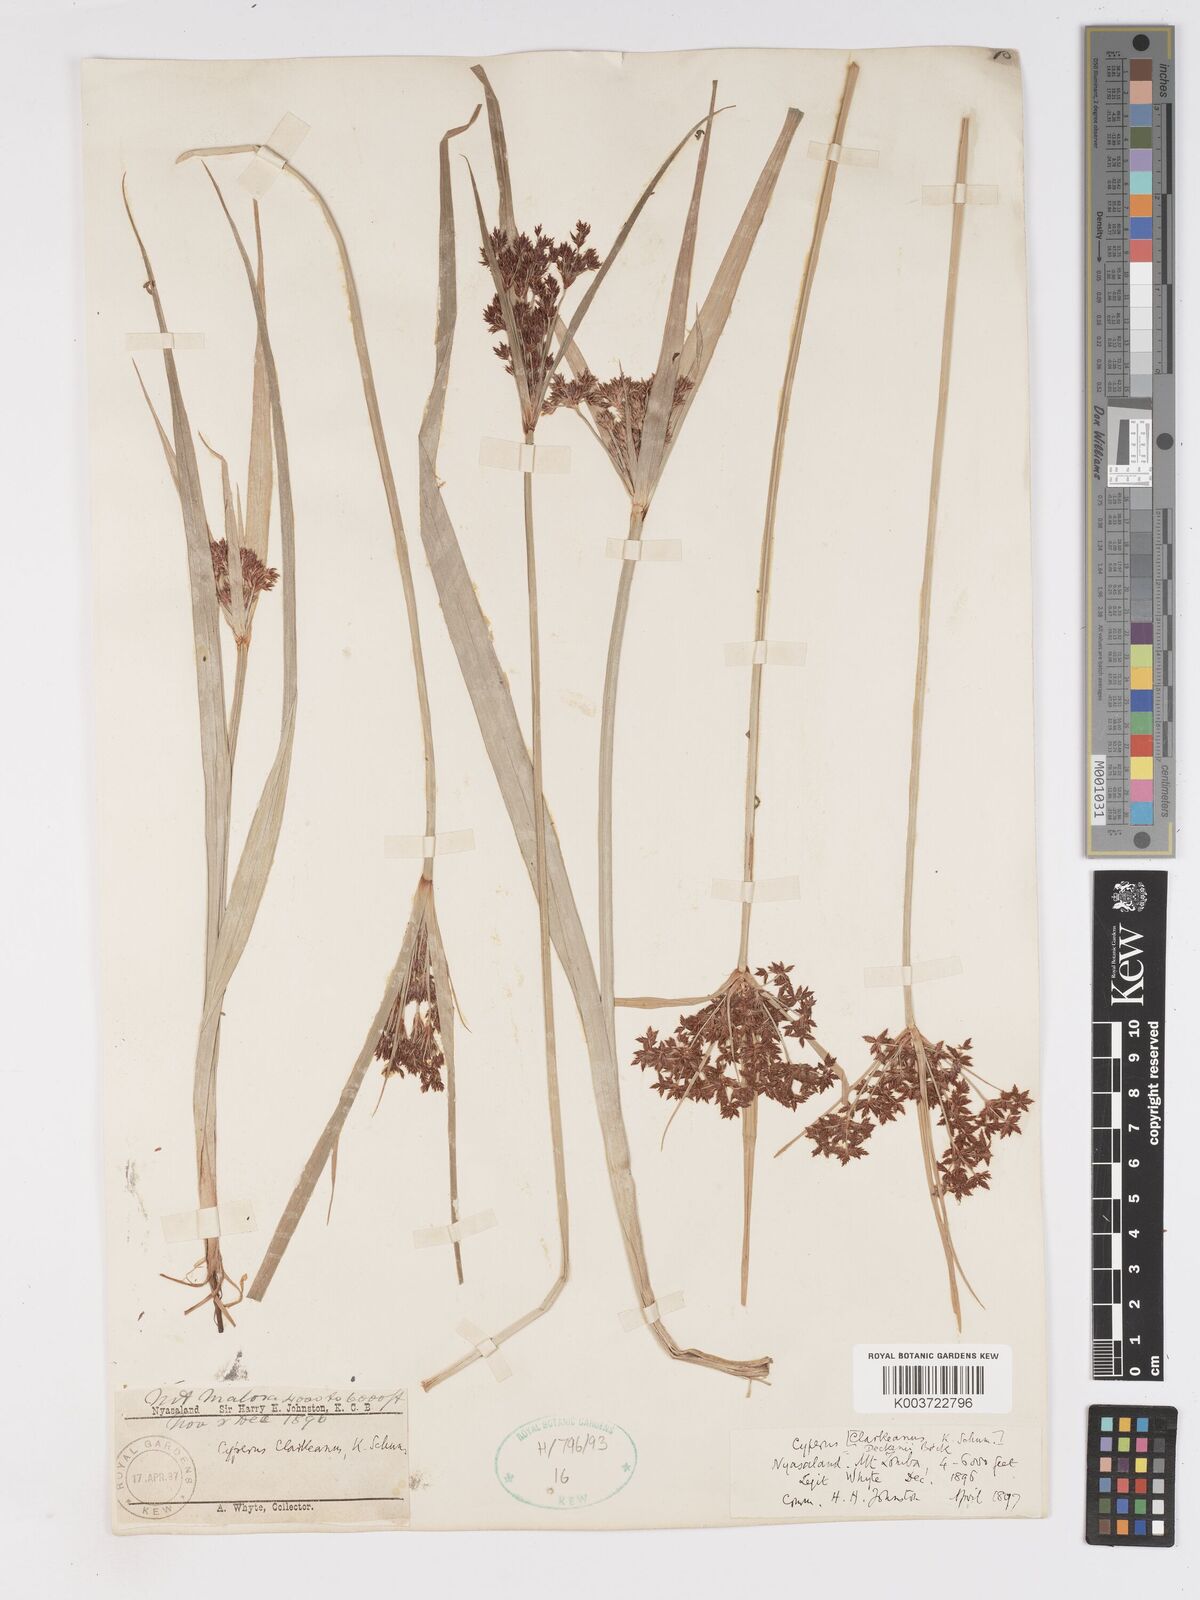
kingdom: Plantae
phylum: Tracheophyta
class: Liliopsida
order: Poales
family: Cyperaceae
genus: Cyperus
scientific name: Cyperus glaucophyllus
